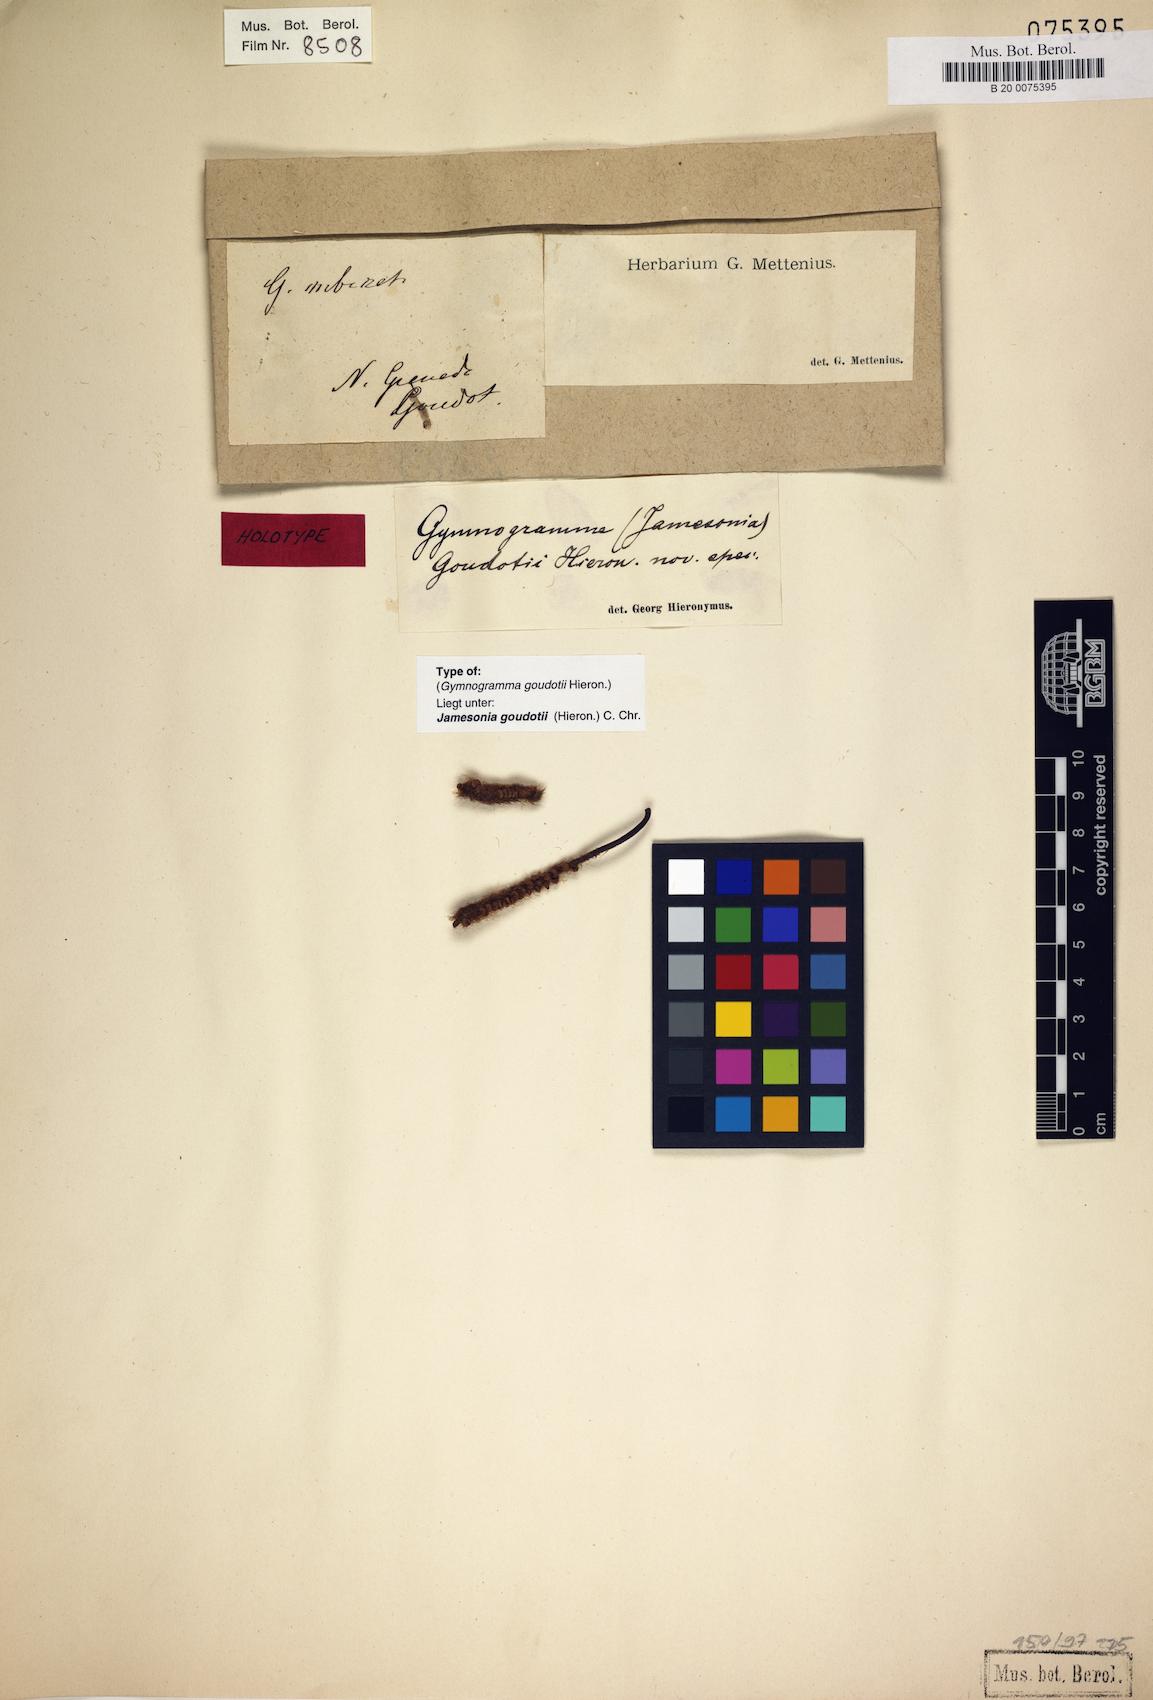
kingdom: Plantae
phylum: Tracheophyta
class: Polypodiopsida
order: Polypodiales
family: Pteridaceae
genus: Jamesonia
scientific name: Jamesonia goudotii
